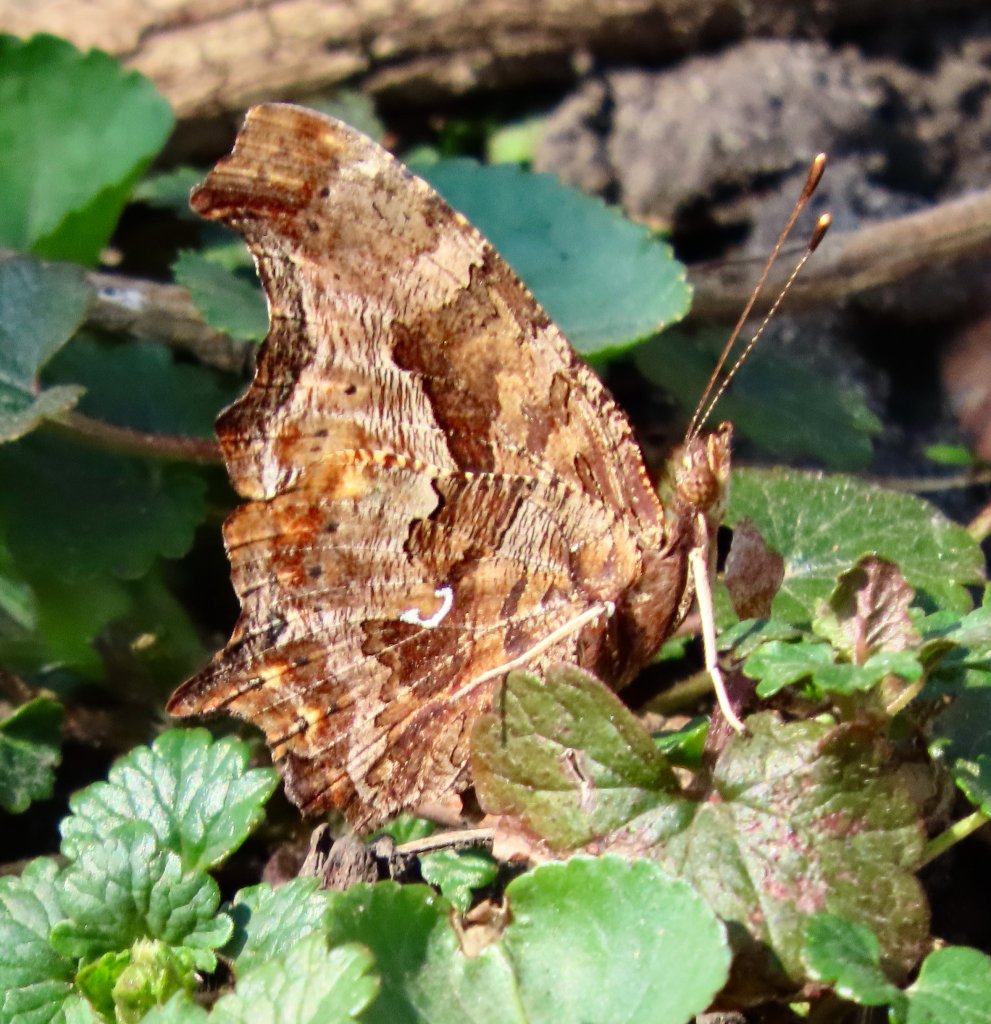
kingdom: Animalia
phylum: Arthropoda
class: Insecta
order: Lepidoptera
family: Nymphalidae
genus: Polygonia
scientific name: Polygonia comma
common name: Eastern Comma
